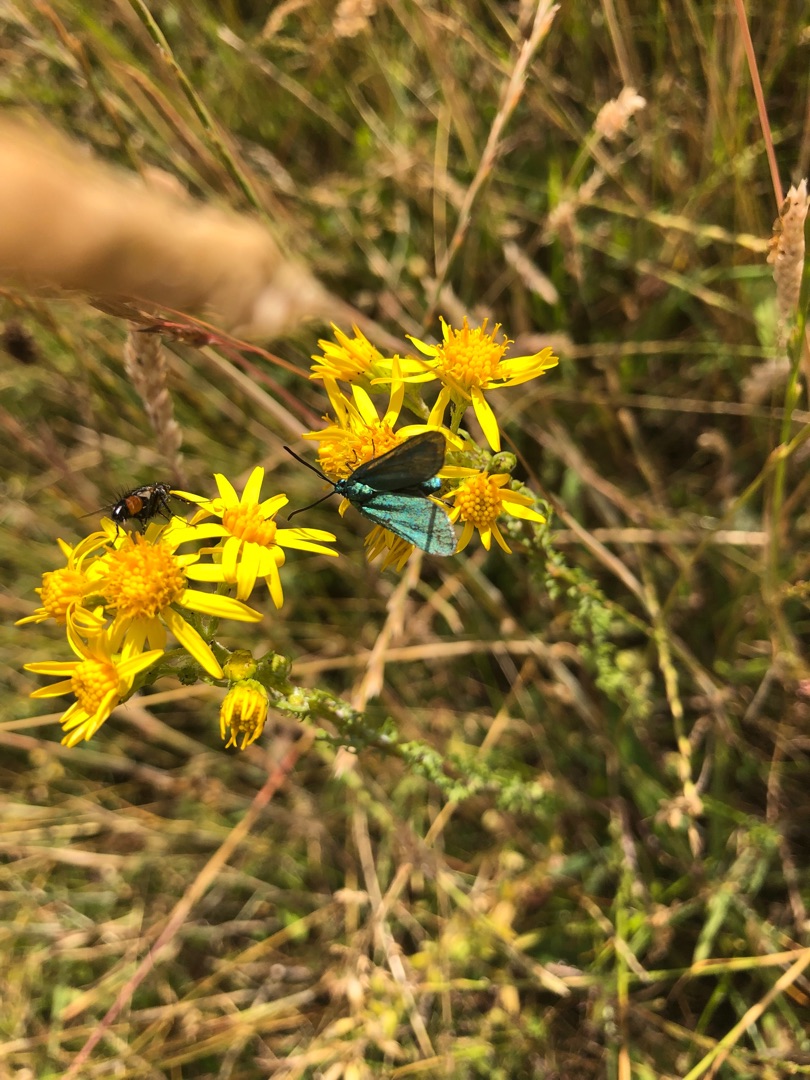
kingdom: Animalia
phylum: Arthropoda
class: Insecta
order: Lepidoptera
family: Zygaenidae
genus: Adscita
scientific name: Adscita statices
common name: Metalvinge
